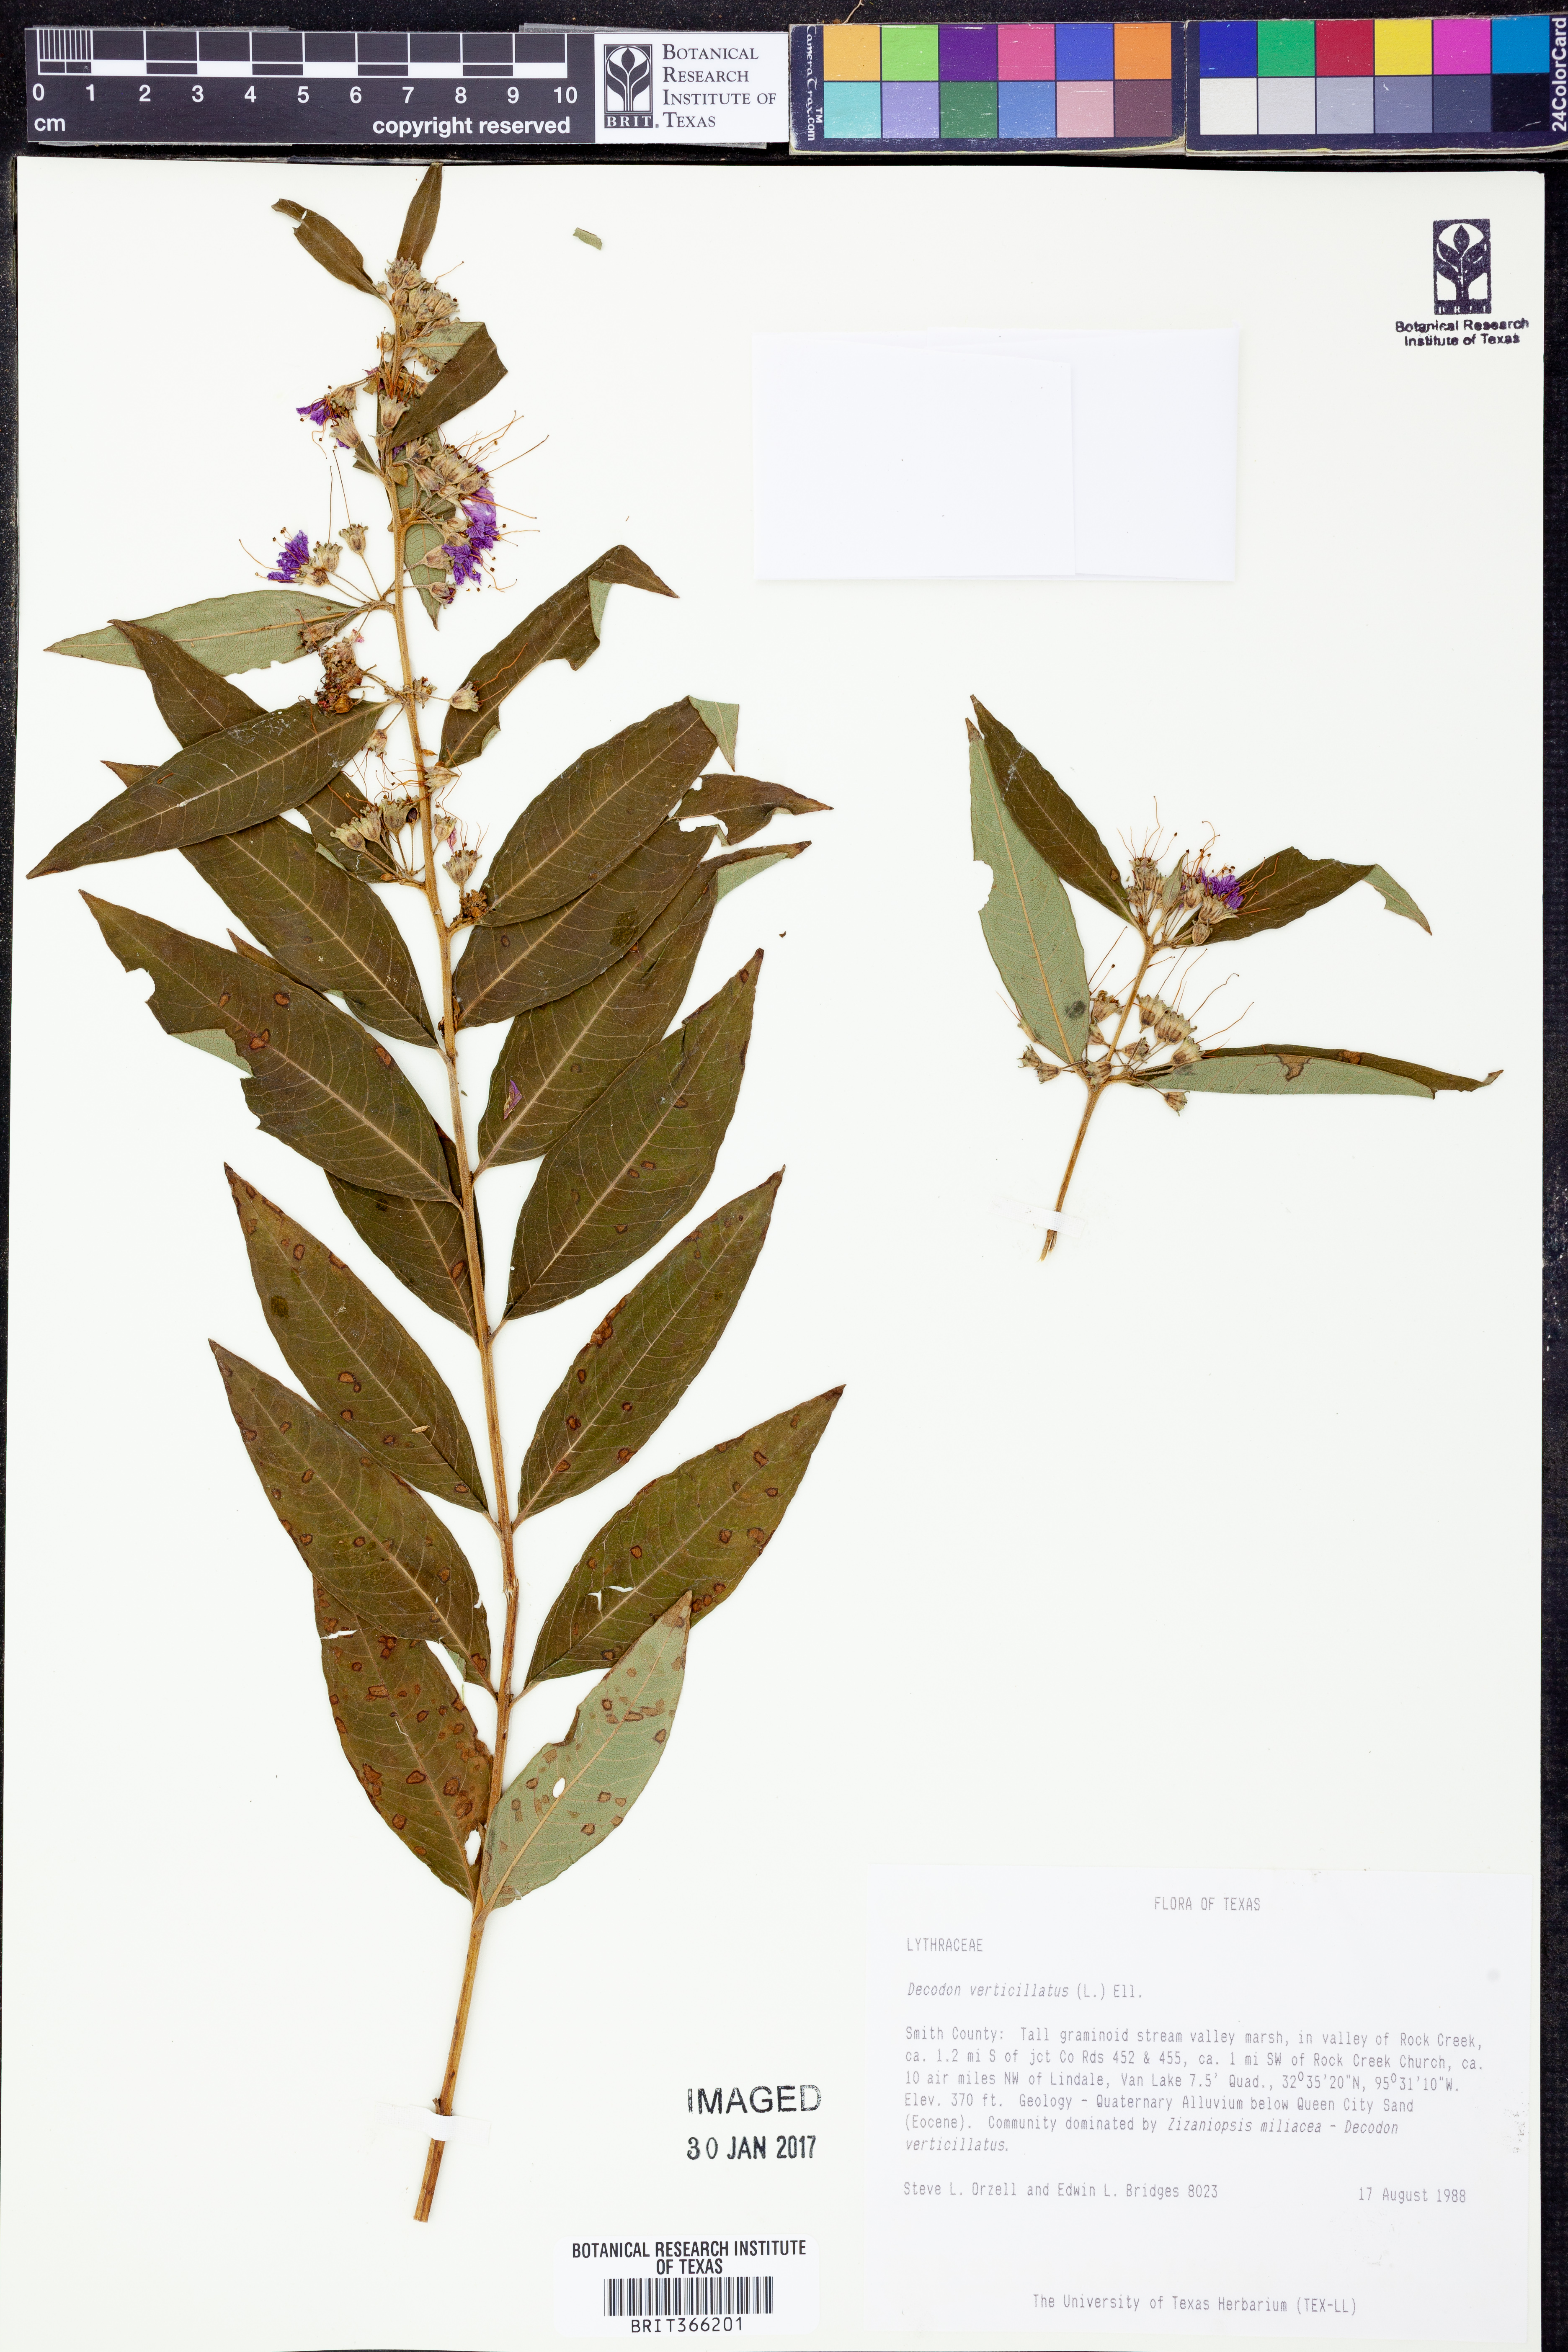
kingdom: Plantae
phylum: Tracheophyta
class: Magnoliopsida
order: Myrtales
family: Lythraceae
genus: Decodon
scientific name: Decodon verticillatus
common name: Hairy swamp loosestrife
